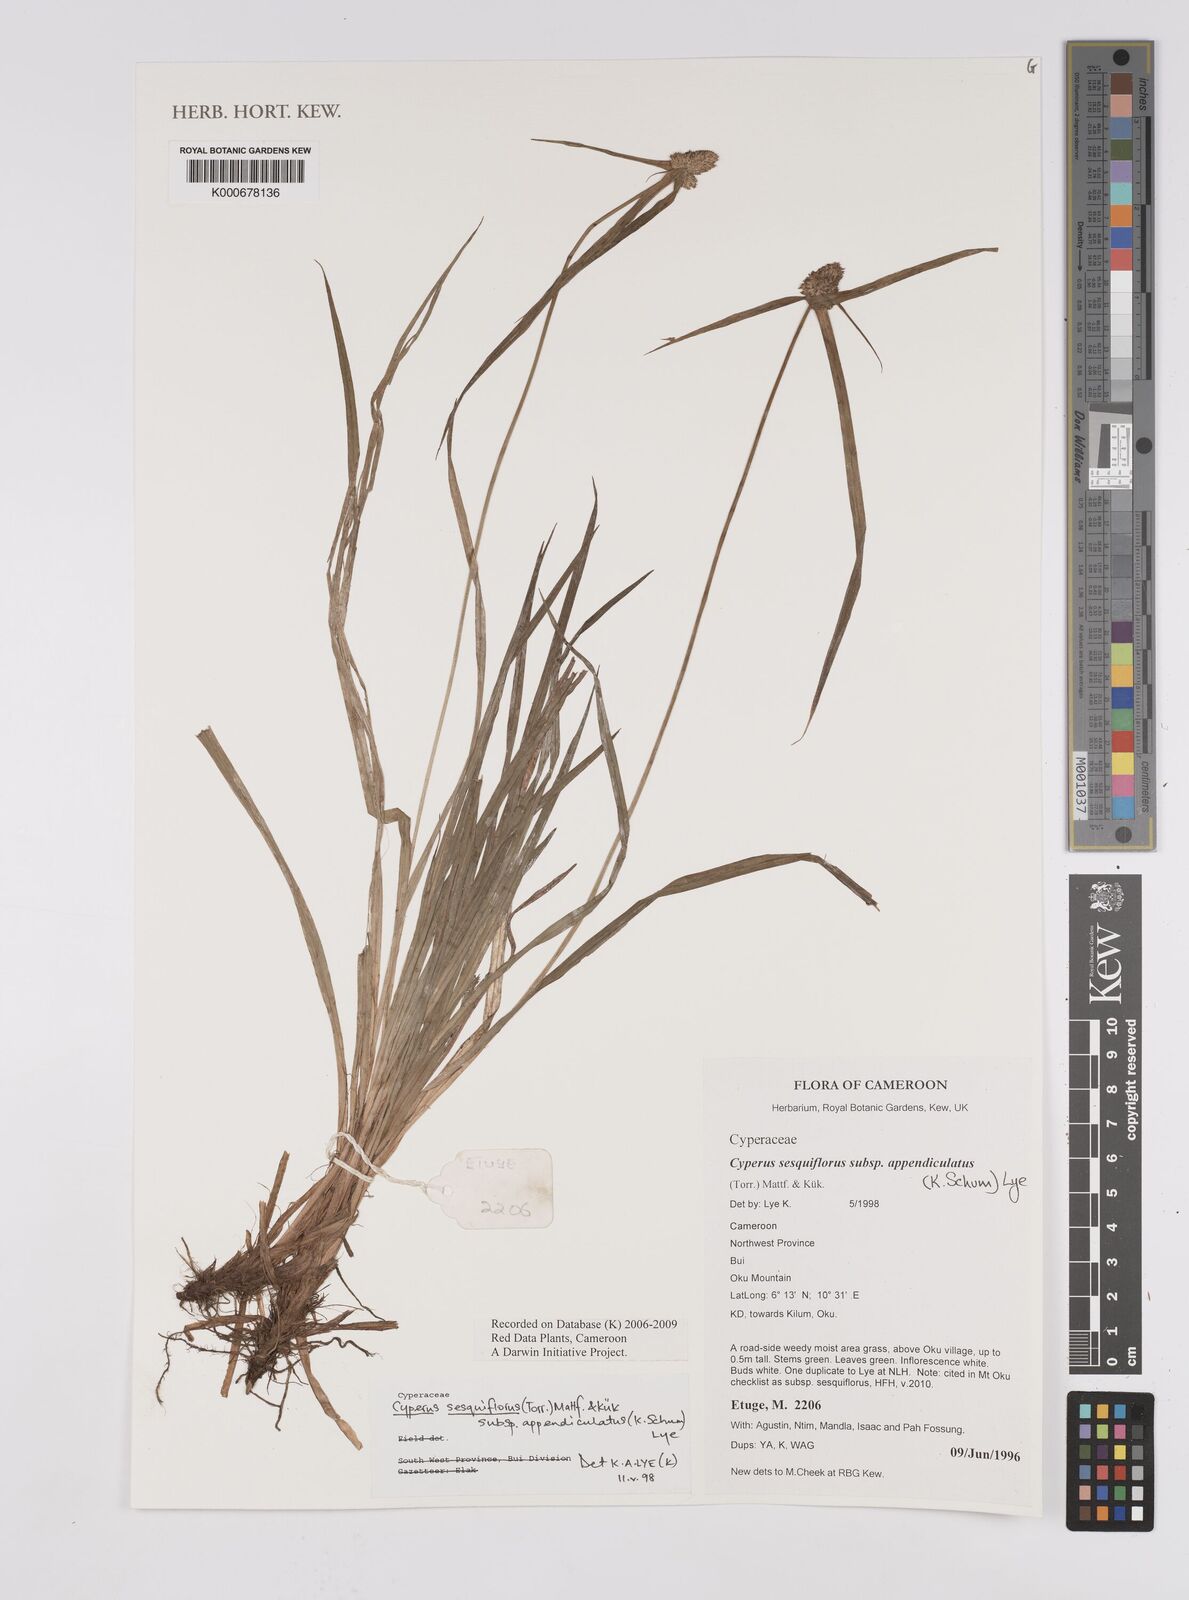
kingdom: Plantae
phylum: Tracheophyta
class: Liliopsida
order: Poales
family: Cyperaceae
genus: Cyperus
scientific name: Cyperus sesquiflorus
